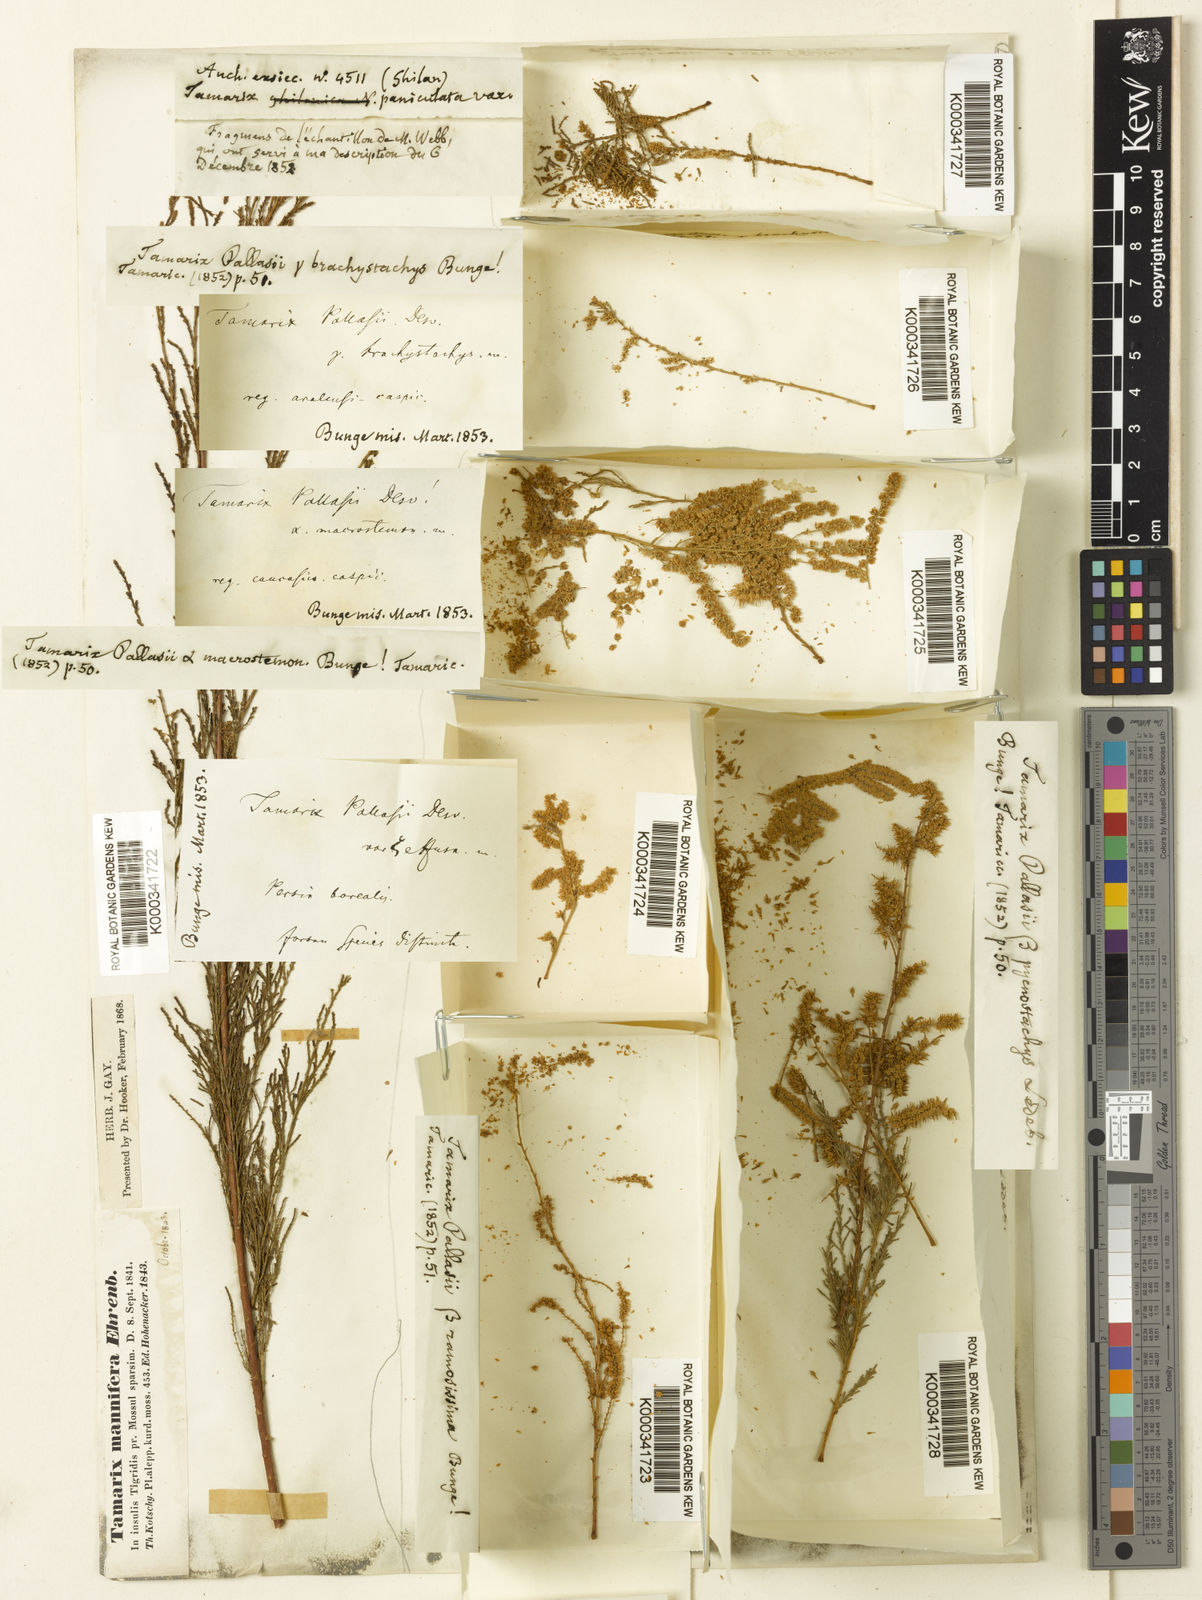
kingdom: Plantae
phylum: Tracheophyta
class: Magnoliopsida
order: Caryophyllales
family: Tamaricaceae
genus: Tamarix
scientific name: Tamarix ramosissima
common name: Pink tamarisk
